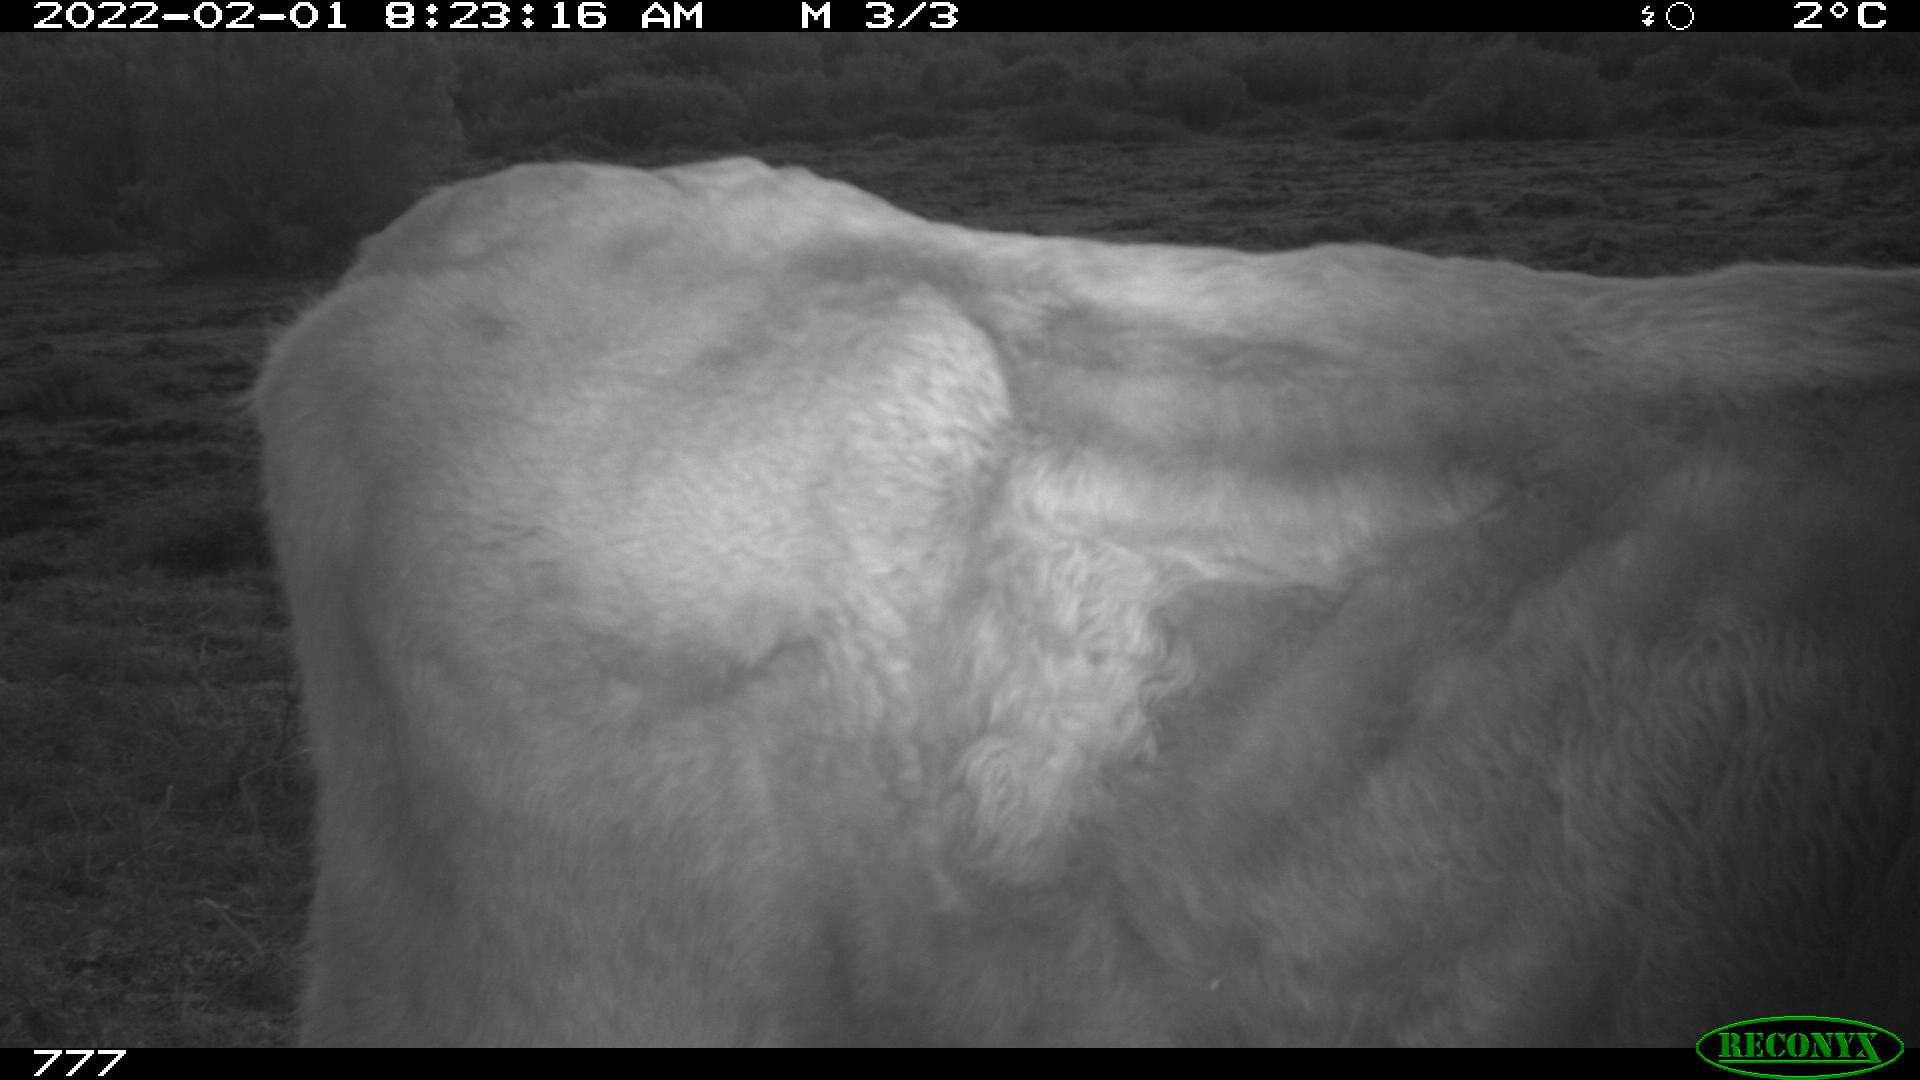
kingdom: Animalia
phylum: Chordata
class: Mammalia
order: Artiodactyla
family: Bovidae
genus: Bos
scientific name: Bos taurus
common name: Domesticated cattle
